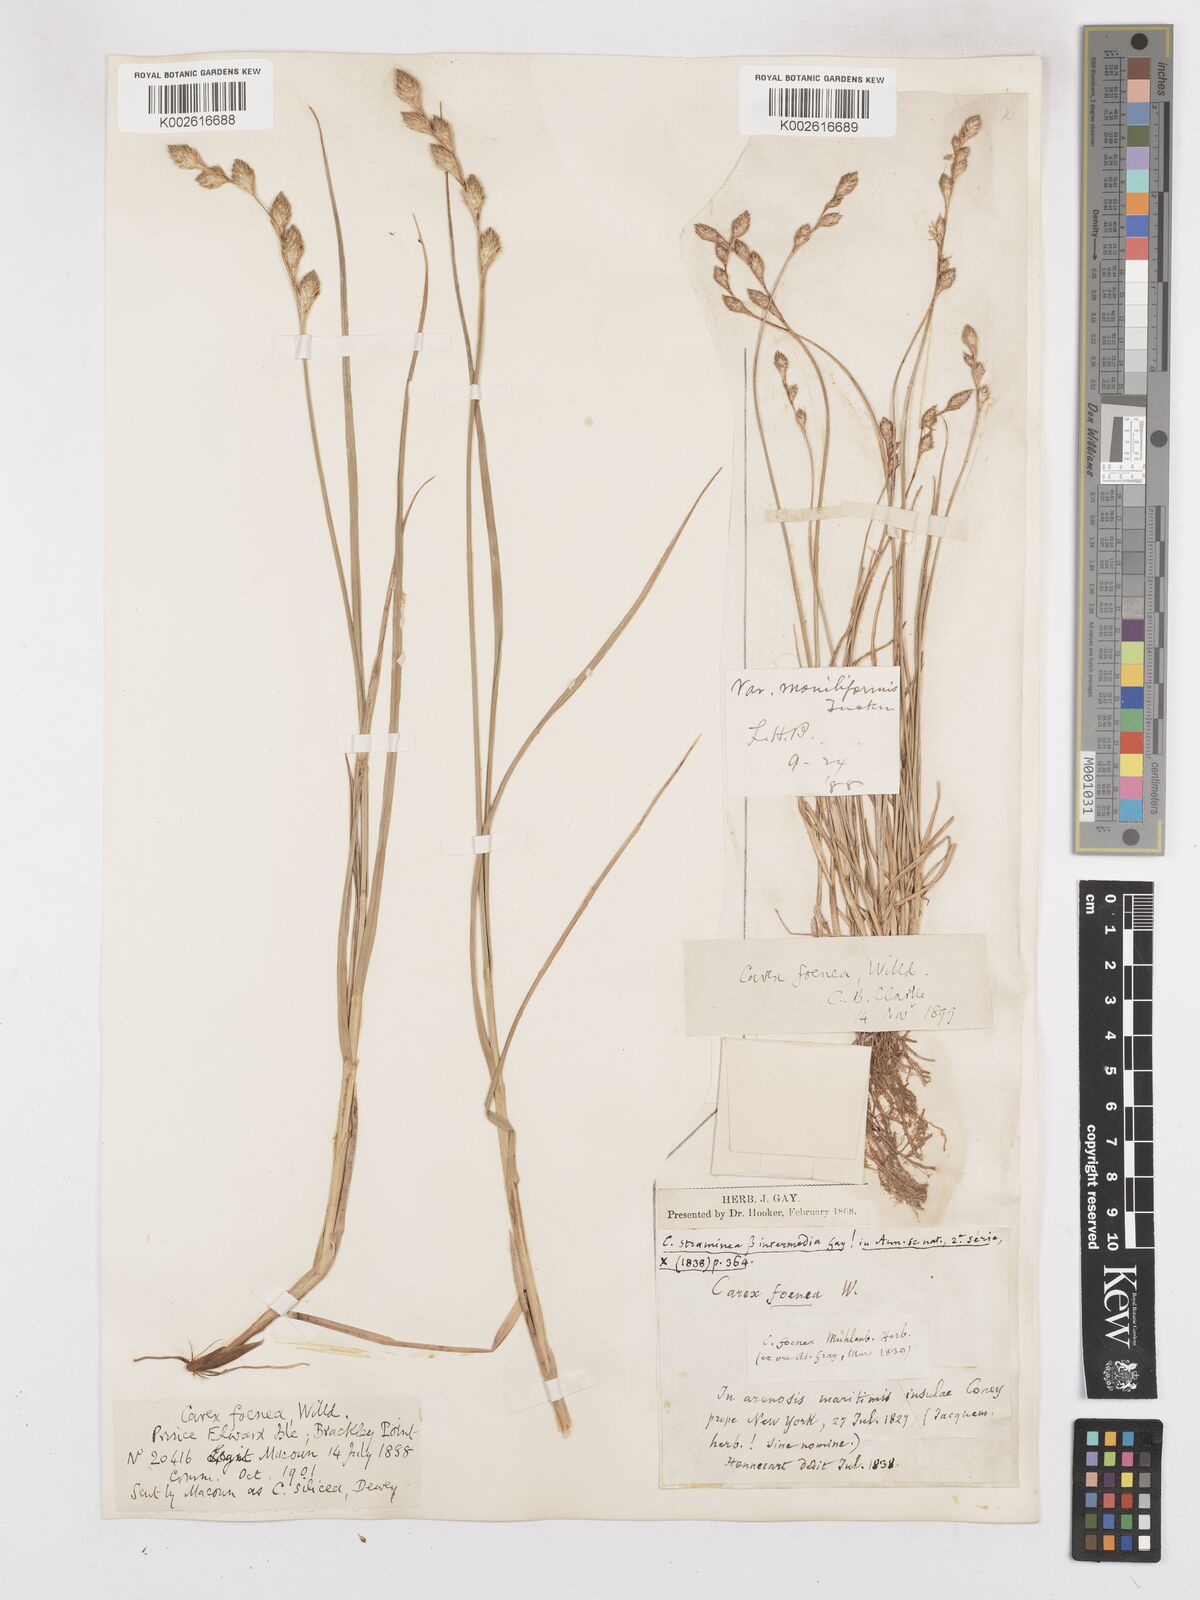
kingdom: Plantae
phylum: Tracheophyta
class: Liliopsida
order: Poales
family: Cyperaceae
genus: Carex
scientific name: Carex argyrantha
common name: Silvery-flowered sedge
